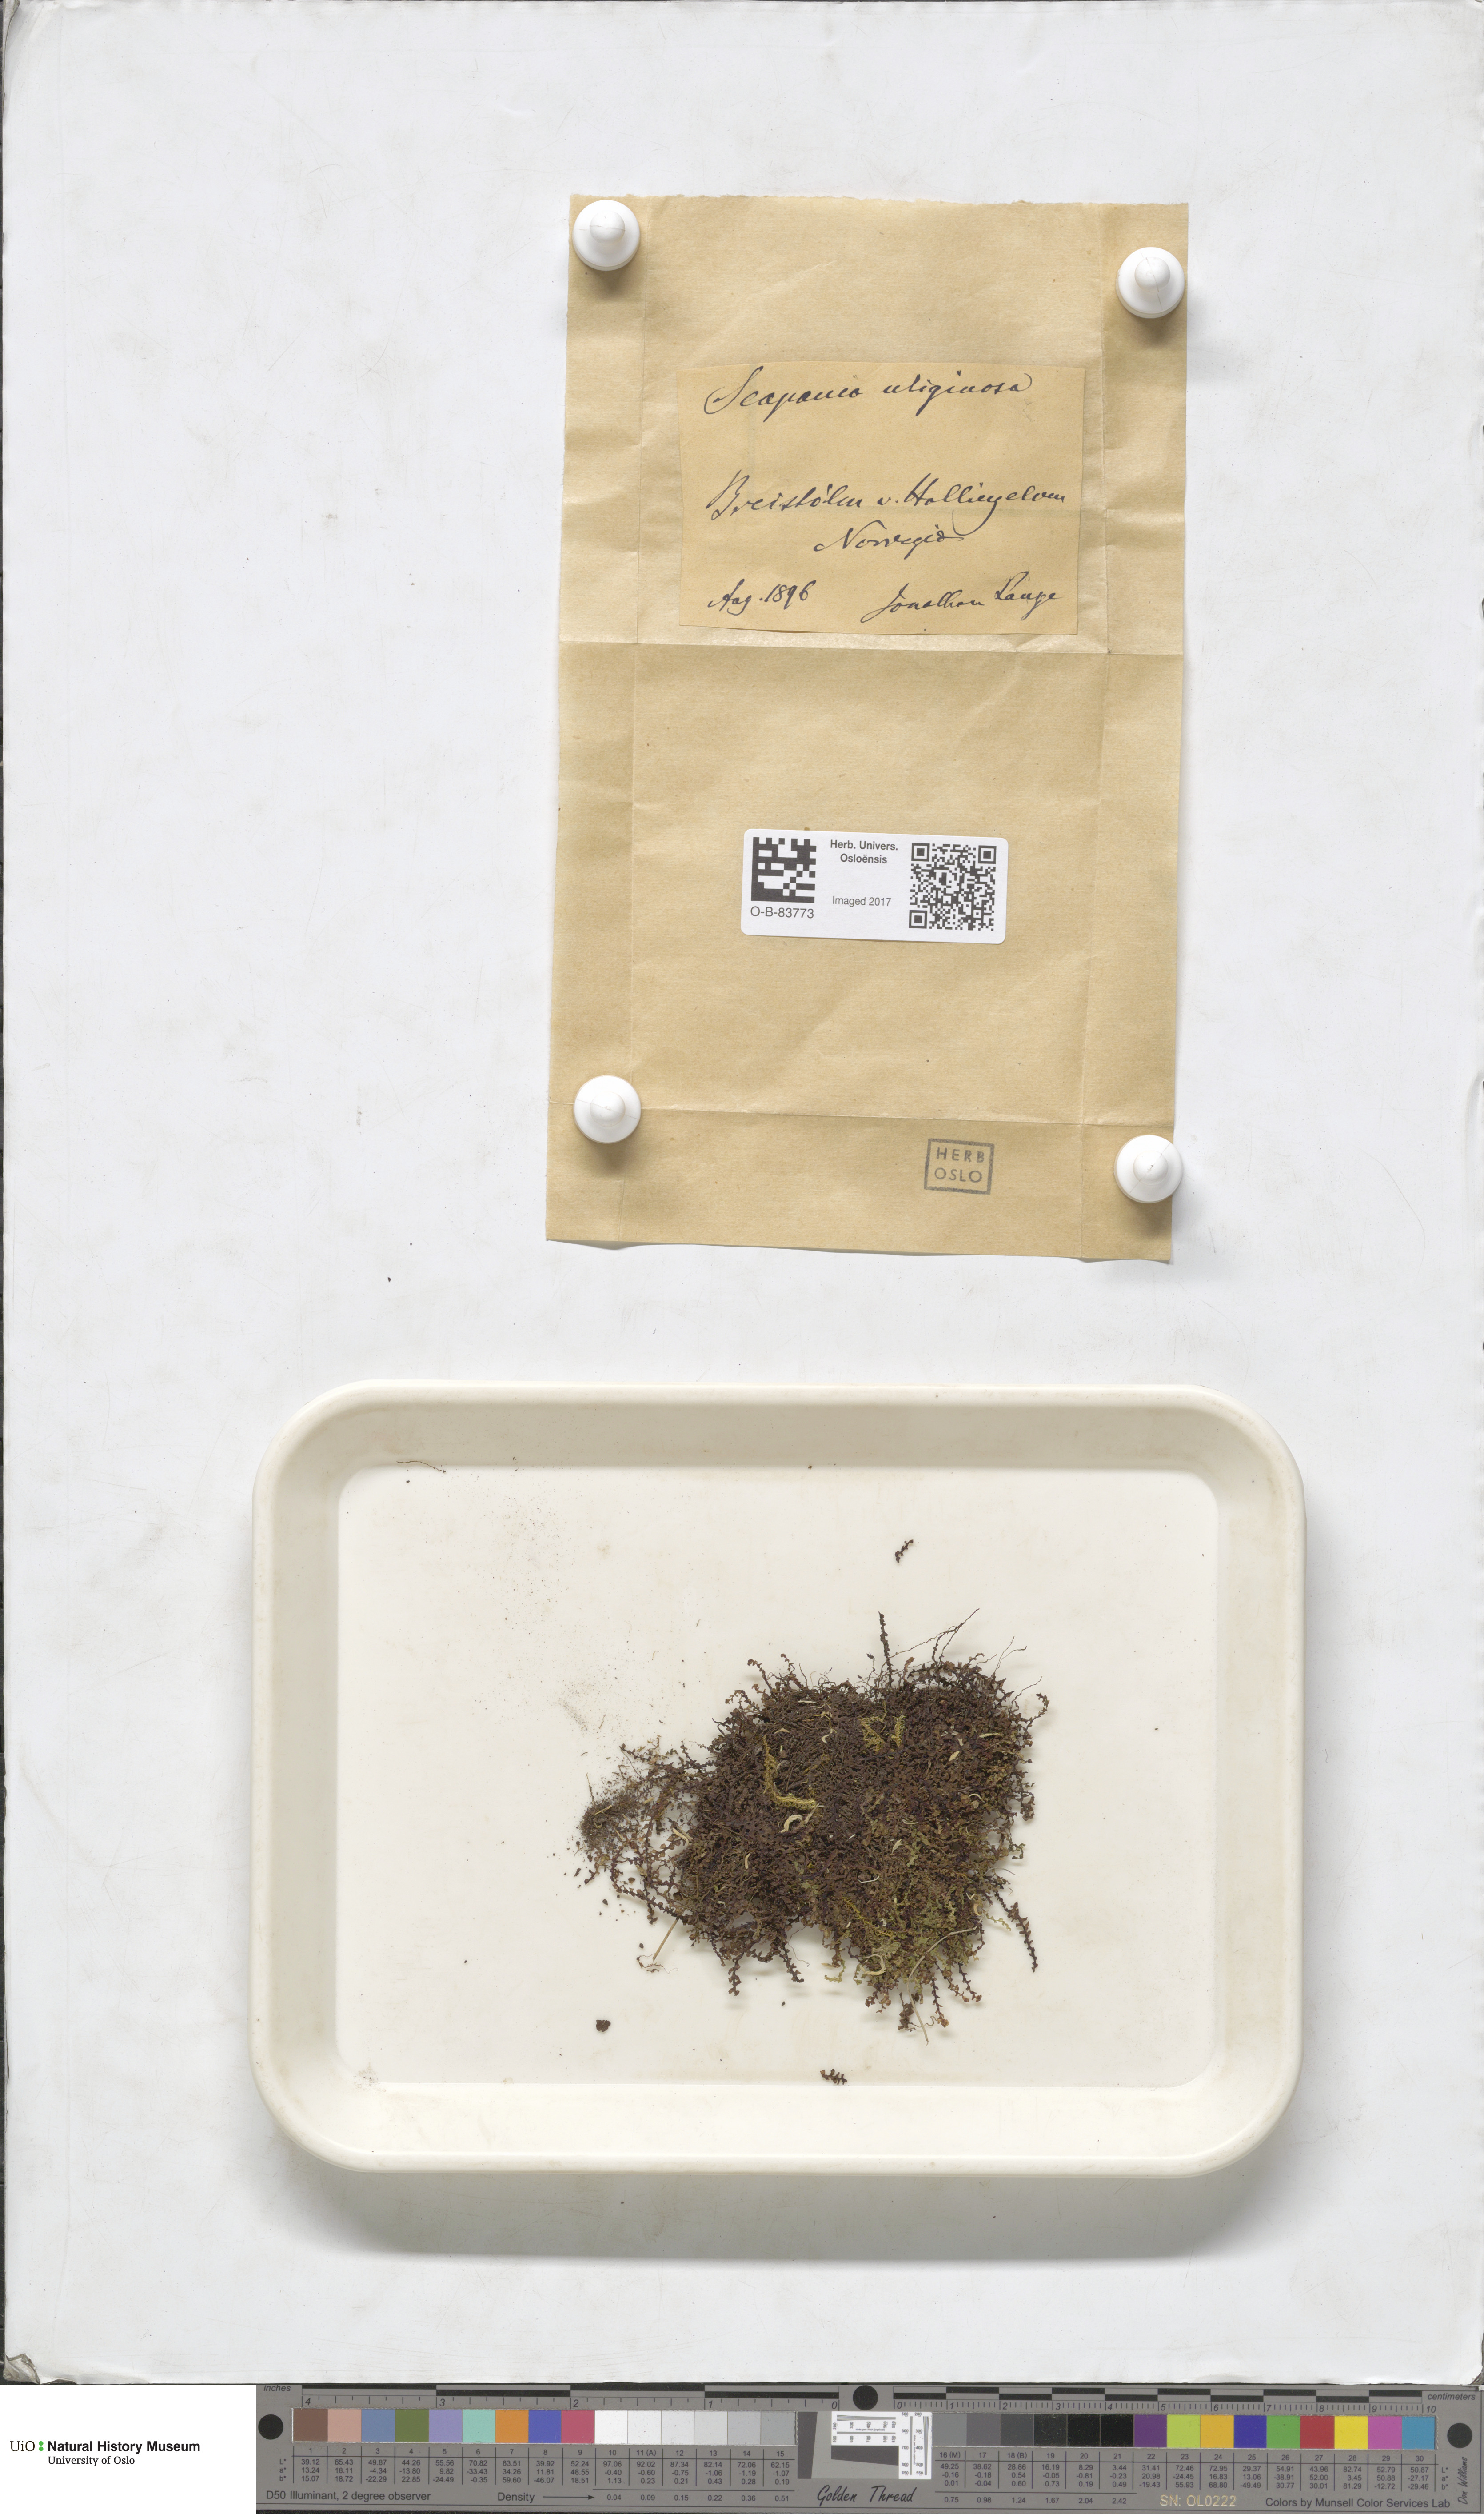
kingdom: Plantae
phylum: Marchantiophyta
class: Jungermanniopsida
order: Jungermanniales
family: Scapaniaceae
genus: Scapania
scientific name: Scapania uliginosa
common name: Marsh earwort
